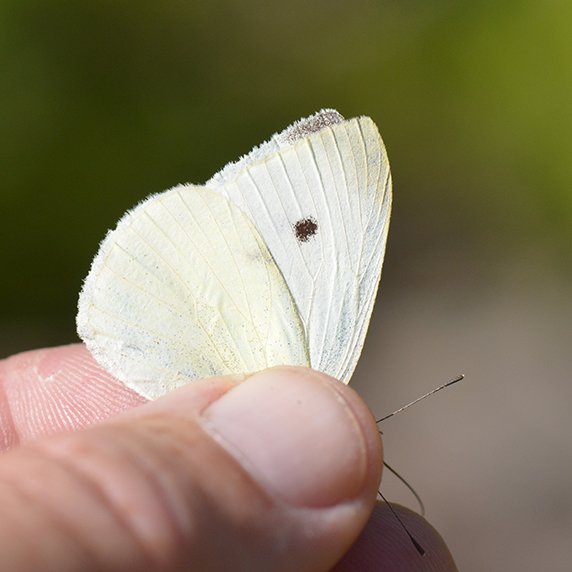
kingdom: Animalia
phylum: Arthropoda
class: Insecta
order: Lepidoptera
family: Pieridae
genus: Pieris
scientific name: Pieris rapae
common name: Cabbage White
